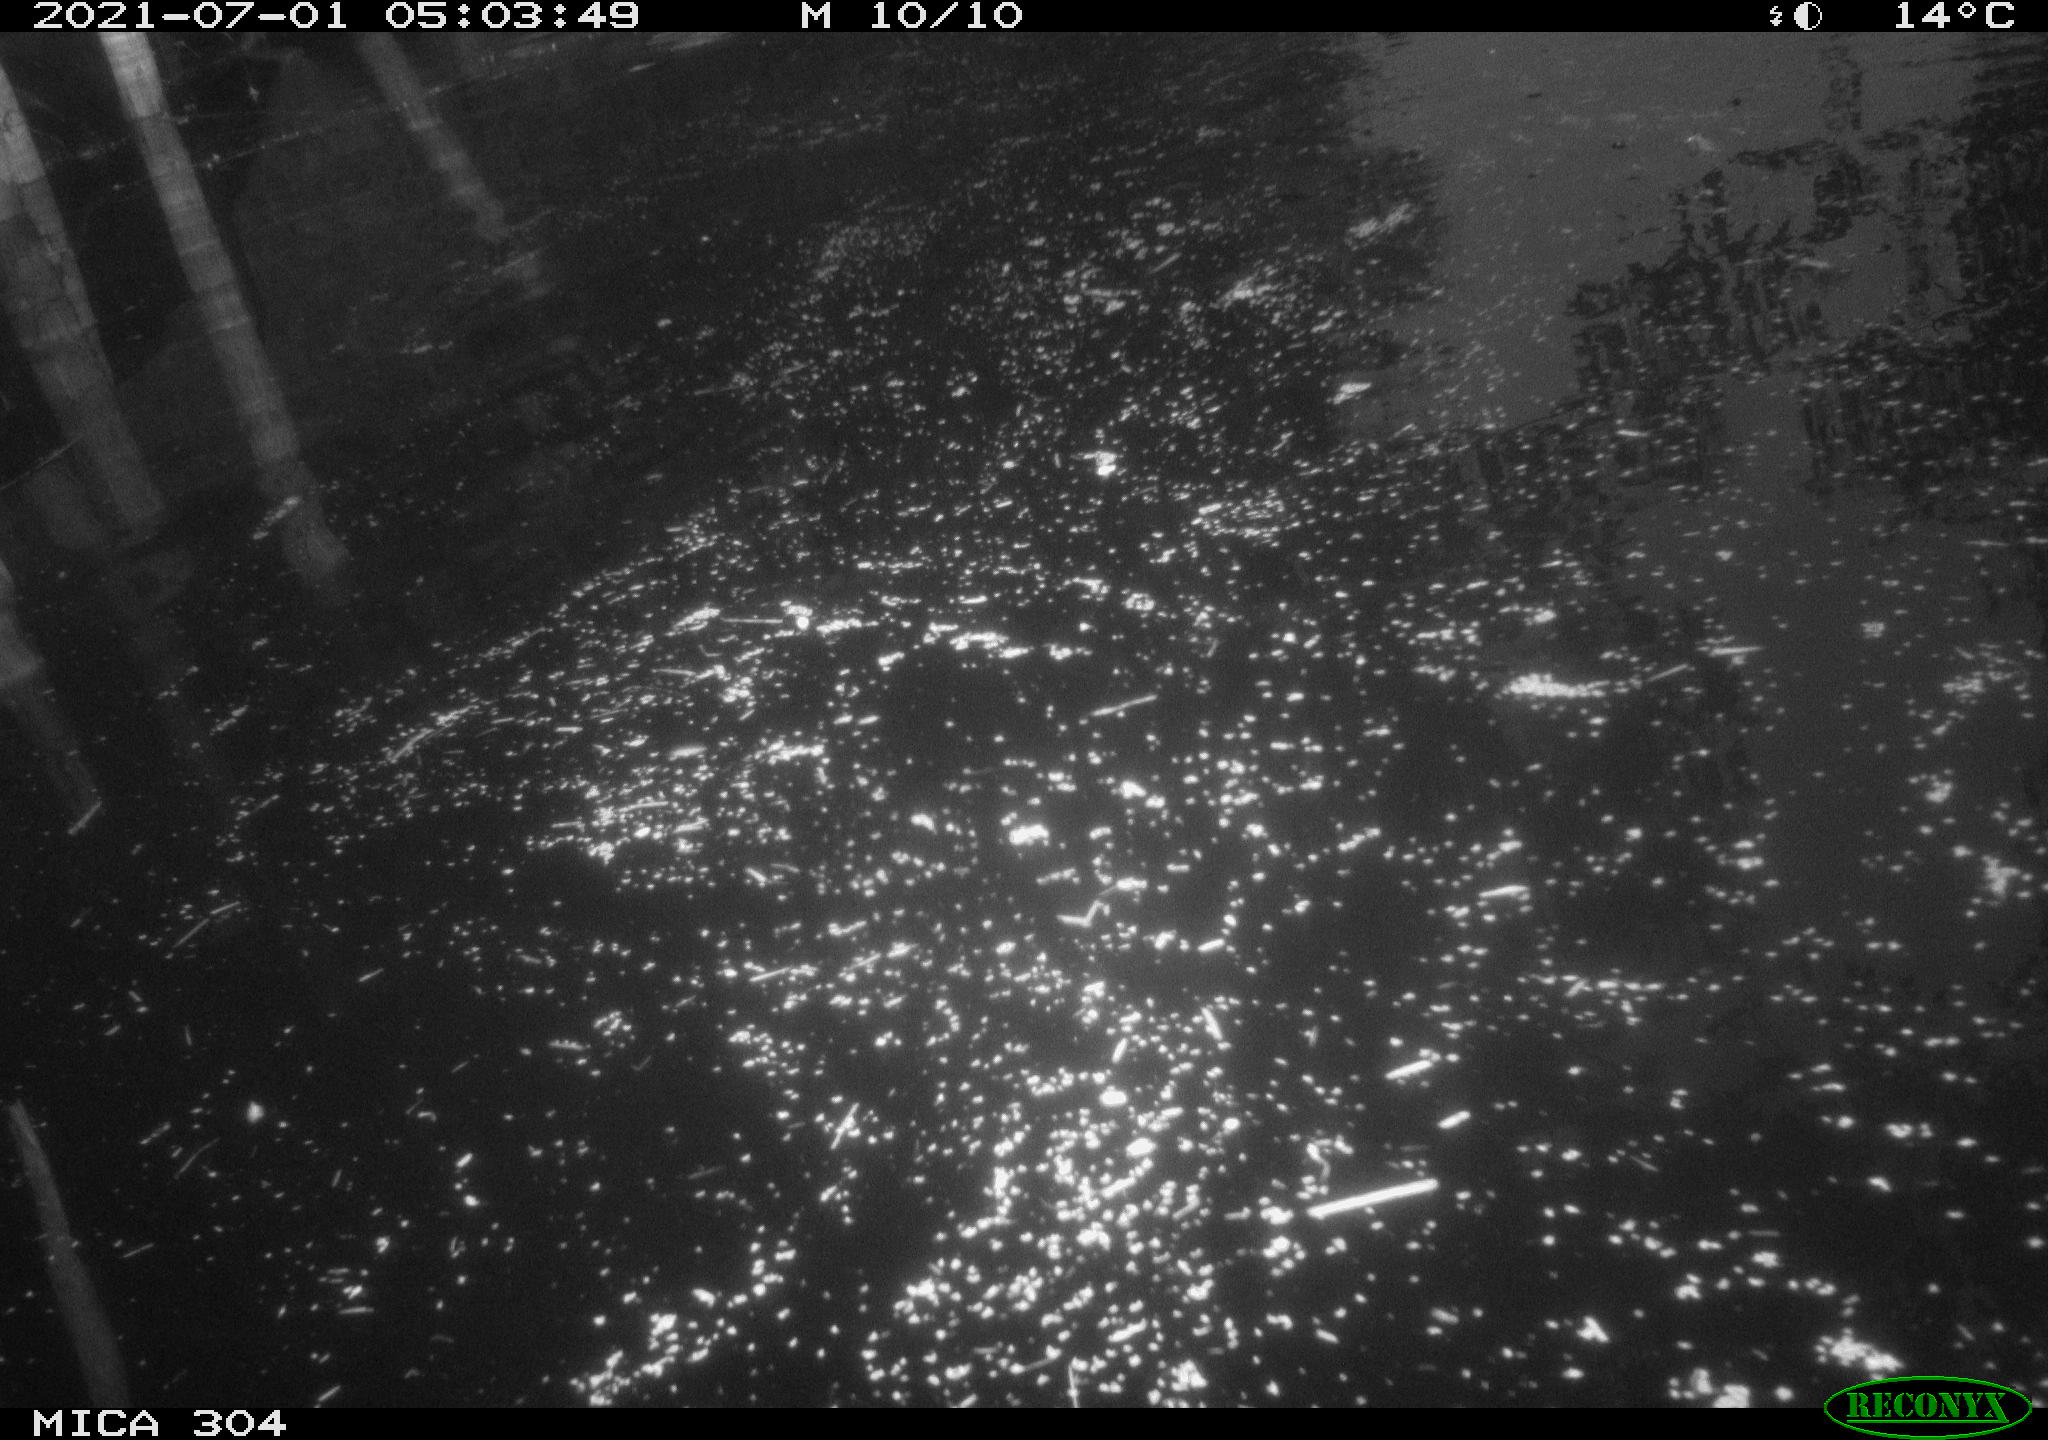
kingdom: Animalia
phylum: Chordata
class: Aves
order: Anseriformes
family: Anatidae
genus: Anas
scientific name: Anas platyrhynchos
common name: Mallard
